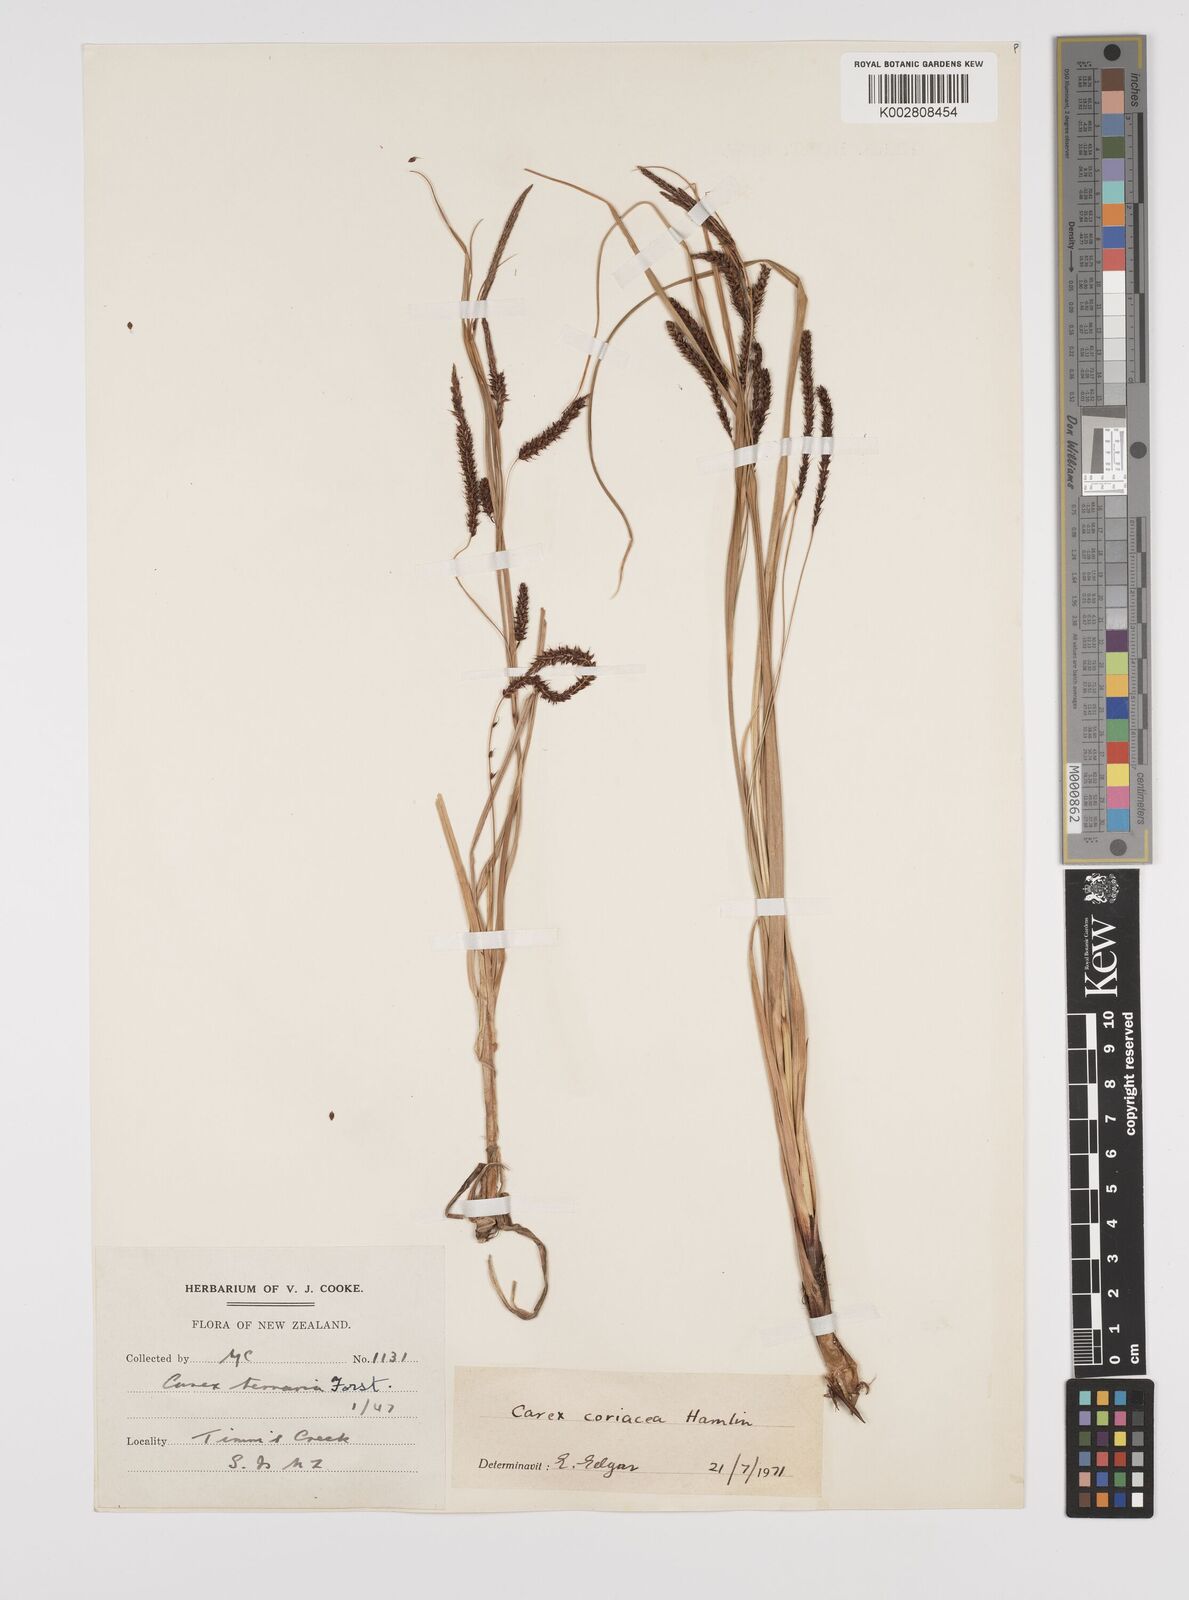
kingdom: Plantae
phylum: Tracheophyta
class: Liliopsida
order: Poales
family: Cyperaceae
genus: Carex
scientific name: Carex coriacea
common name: Rautahi
